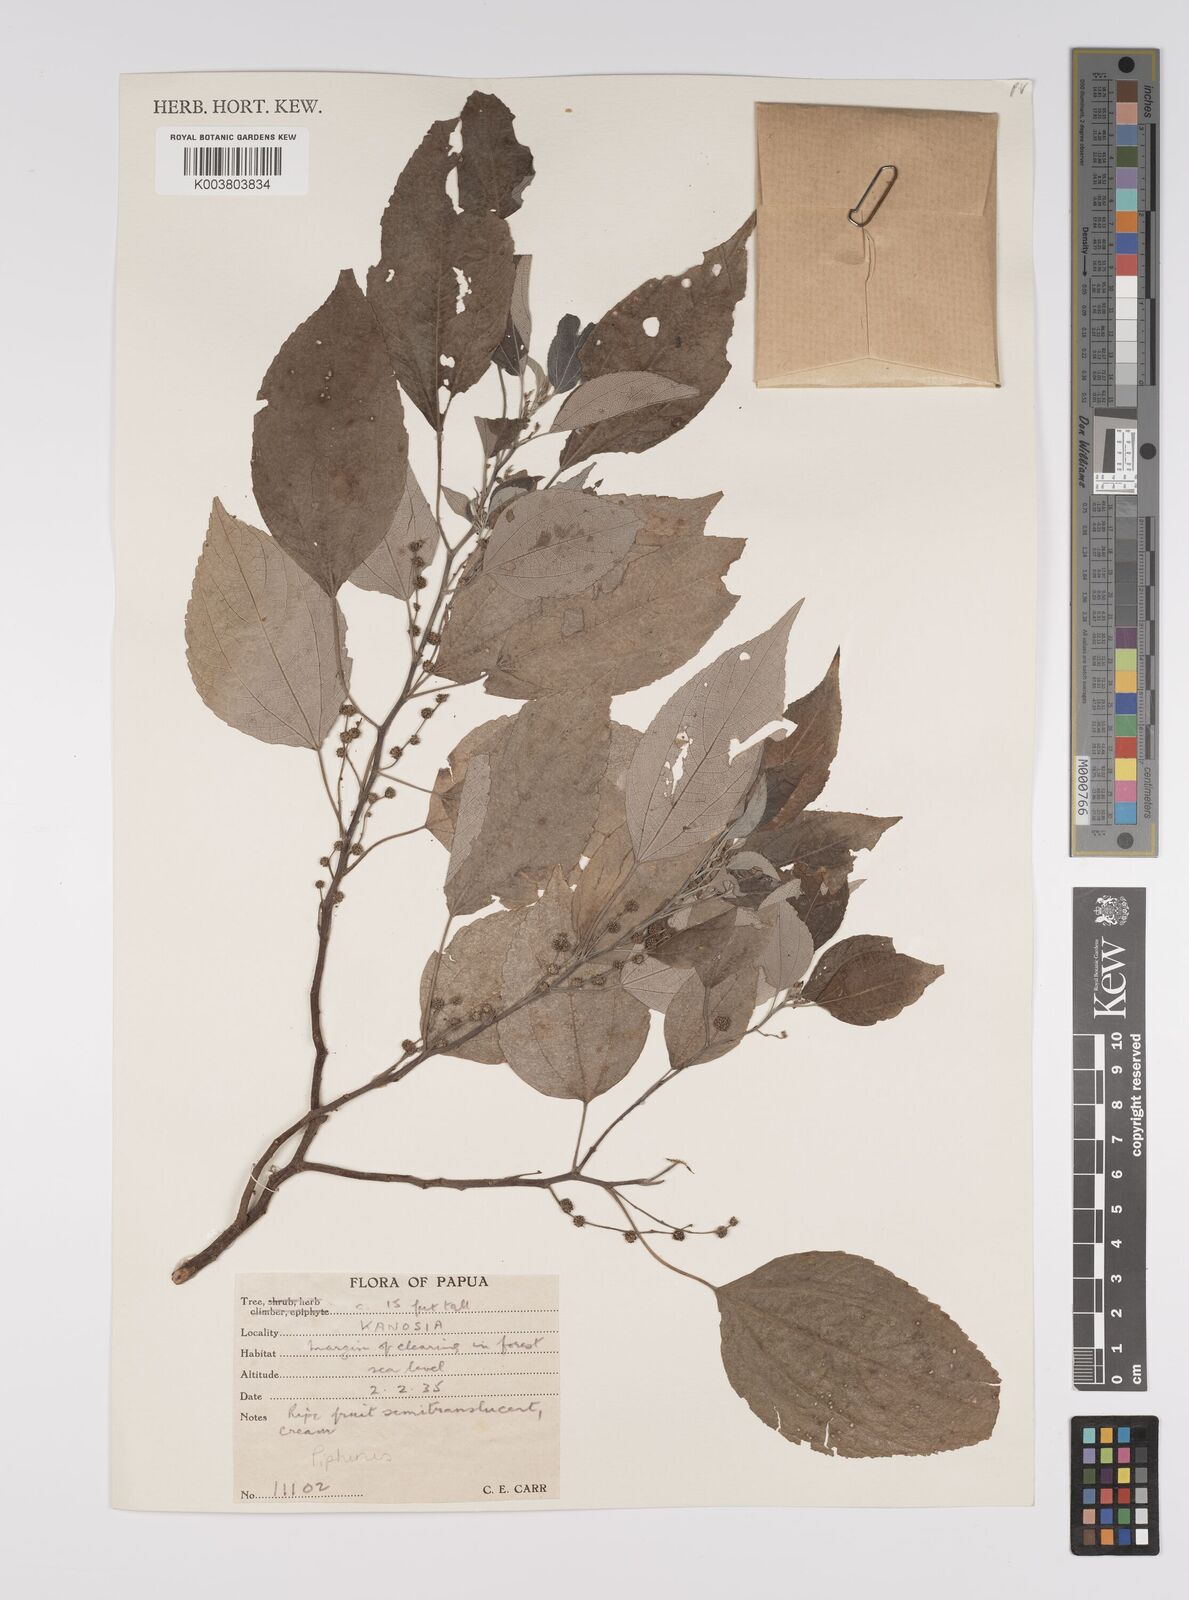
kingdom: Plantae
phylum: Tracheophyta
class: Magnoliopsida
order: Rosales
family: Urticaceae
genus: Pipturus
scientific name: Pipturus argenteus
